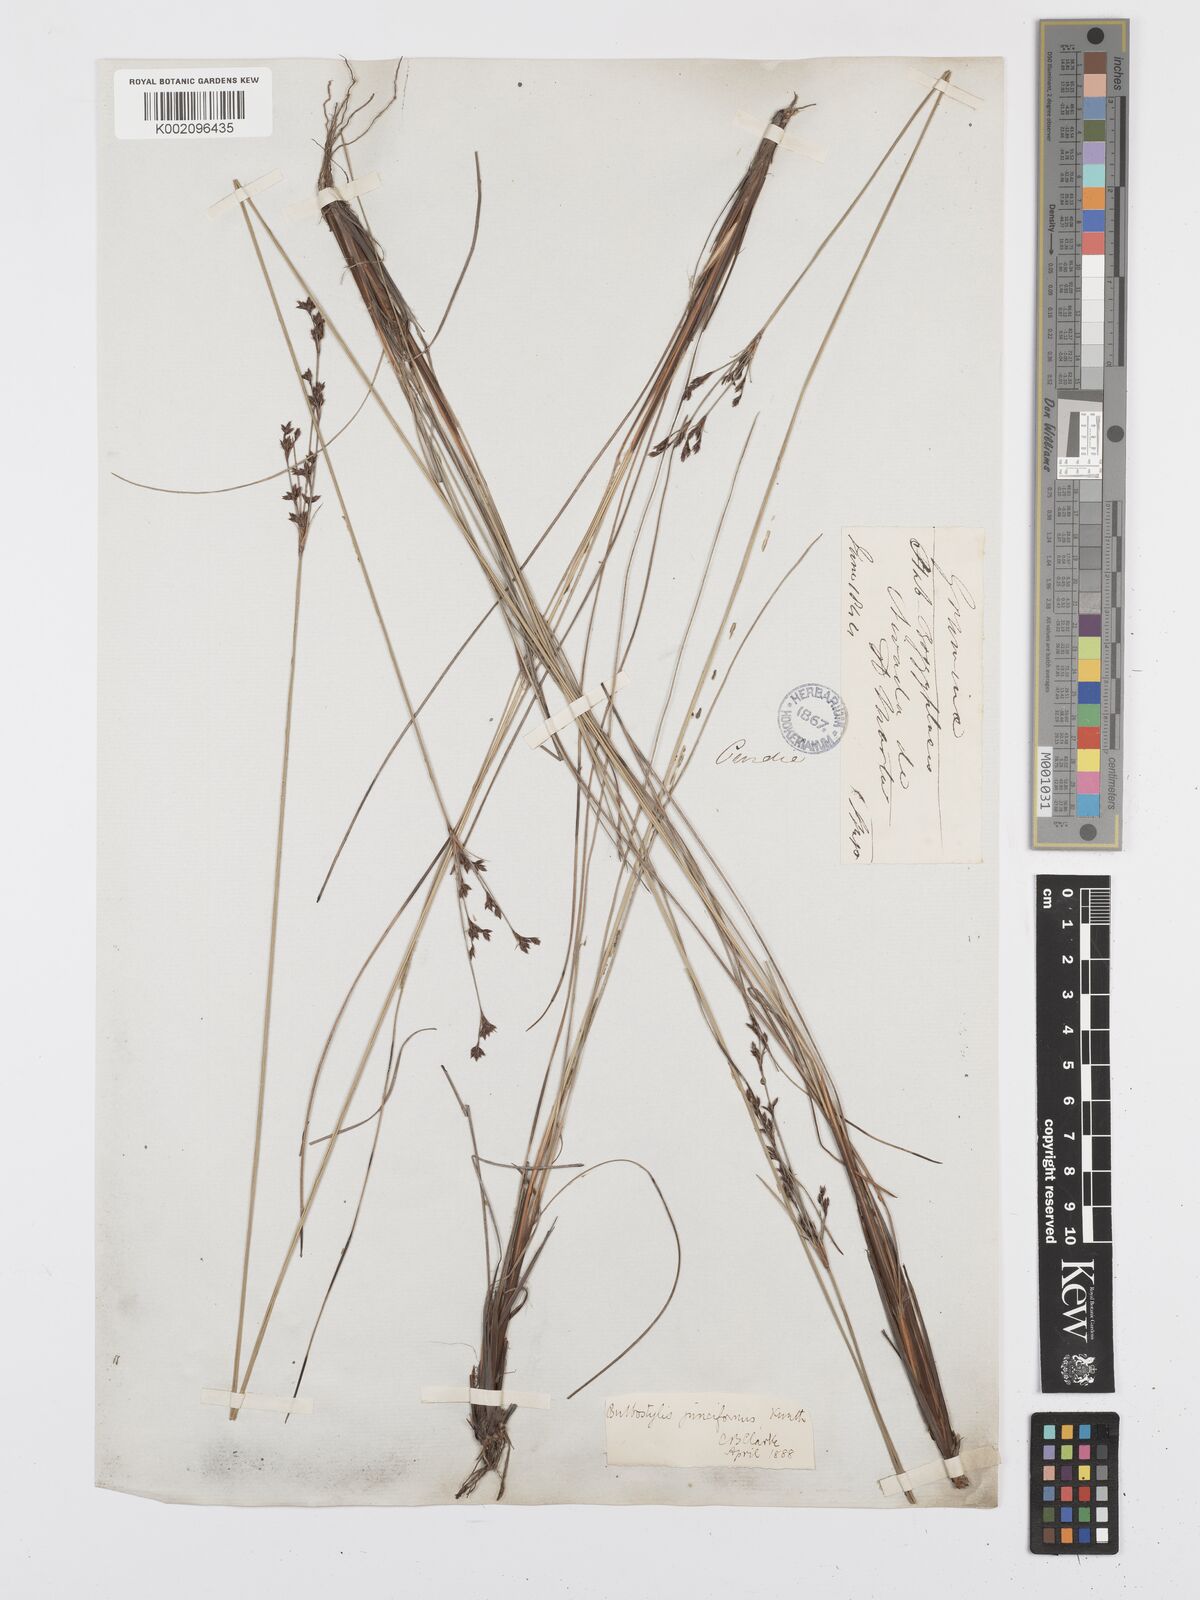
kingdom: Plantae
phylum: Tracheophyta
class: Liliopsida
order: Poales
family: Cyperaceae
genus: Bulbostylis
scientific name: Bulbostylis junciformis
